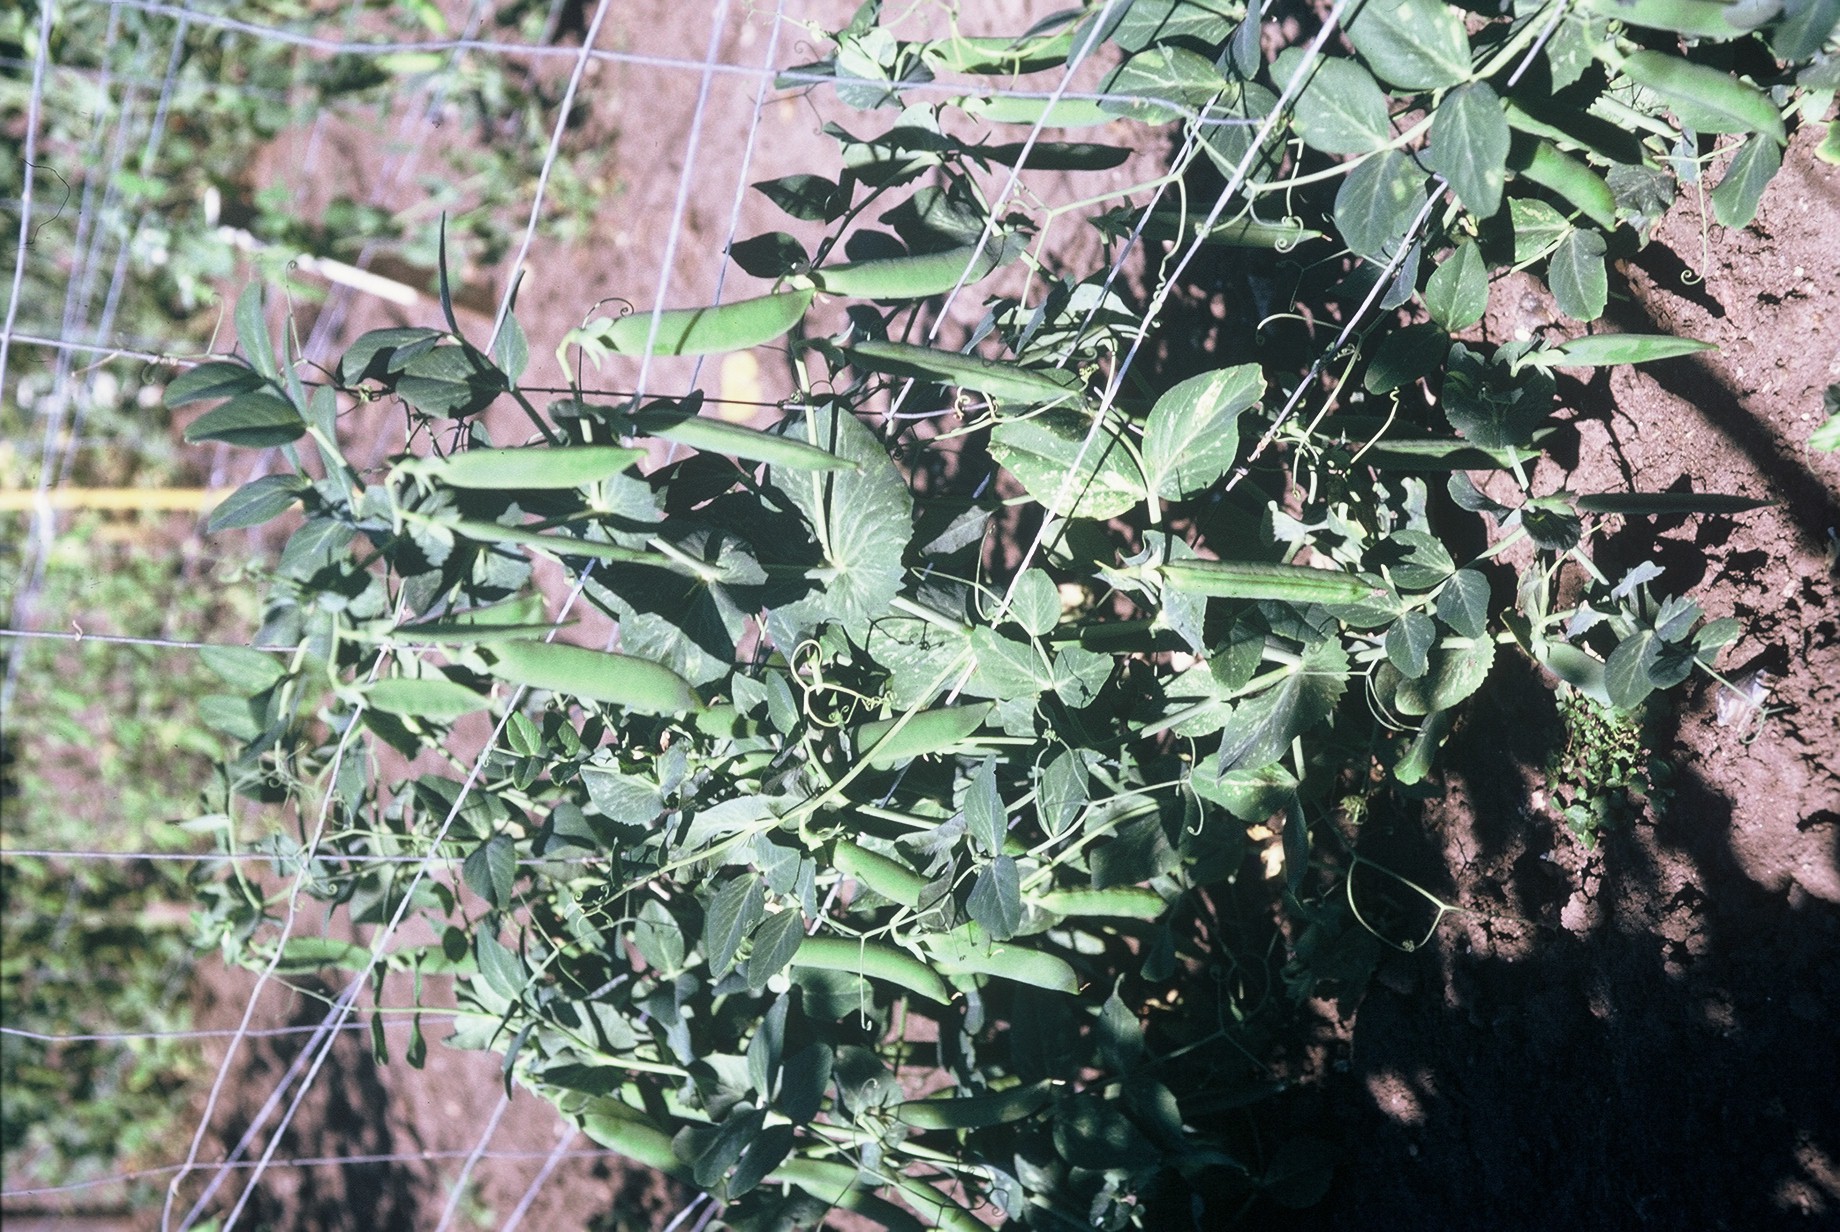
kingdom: Plantae
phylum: Tracheophyta
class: Magnoliopsida
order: Fabales
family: Fabaceae
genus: Lathyrus
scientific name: Lathyrus oleraceus
